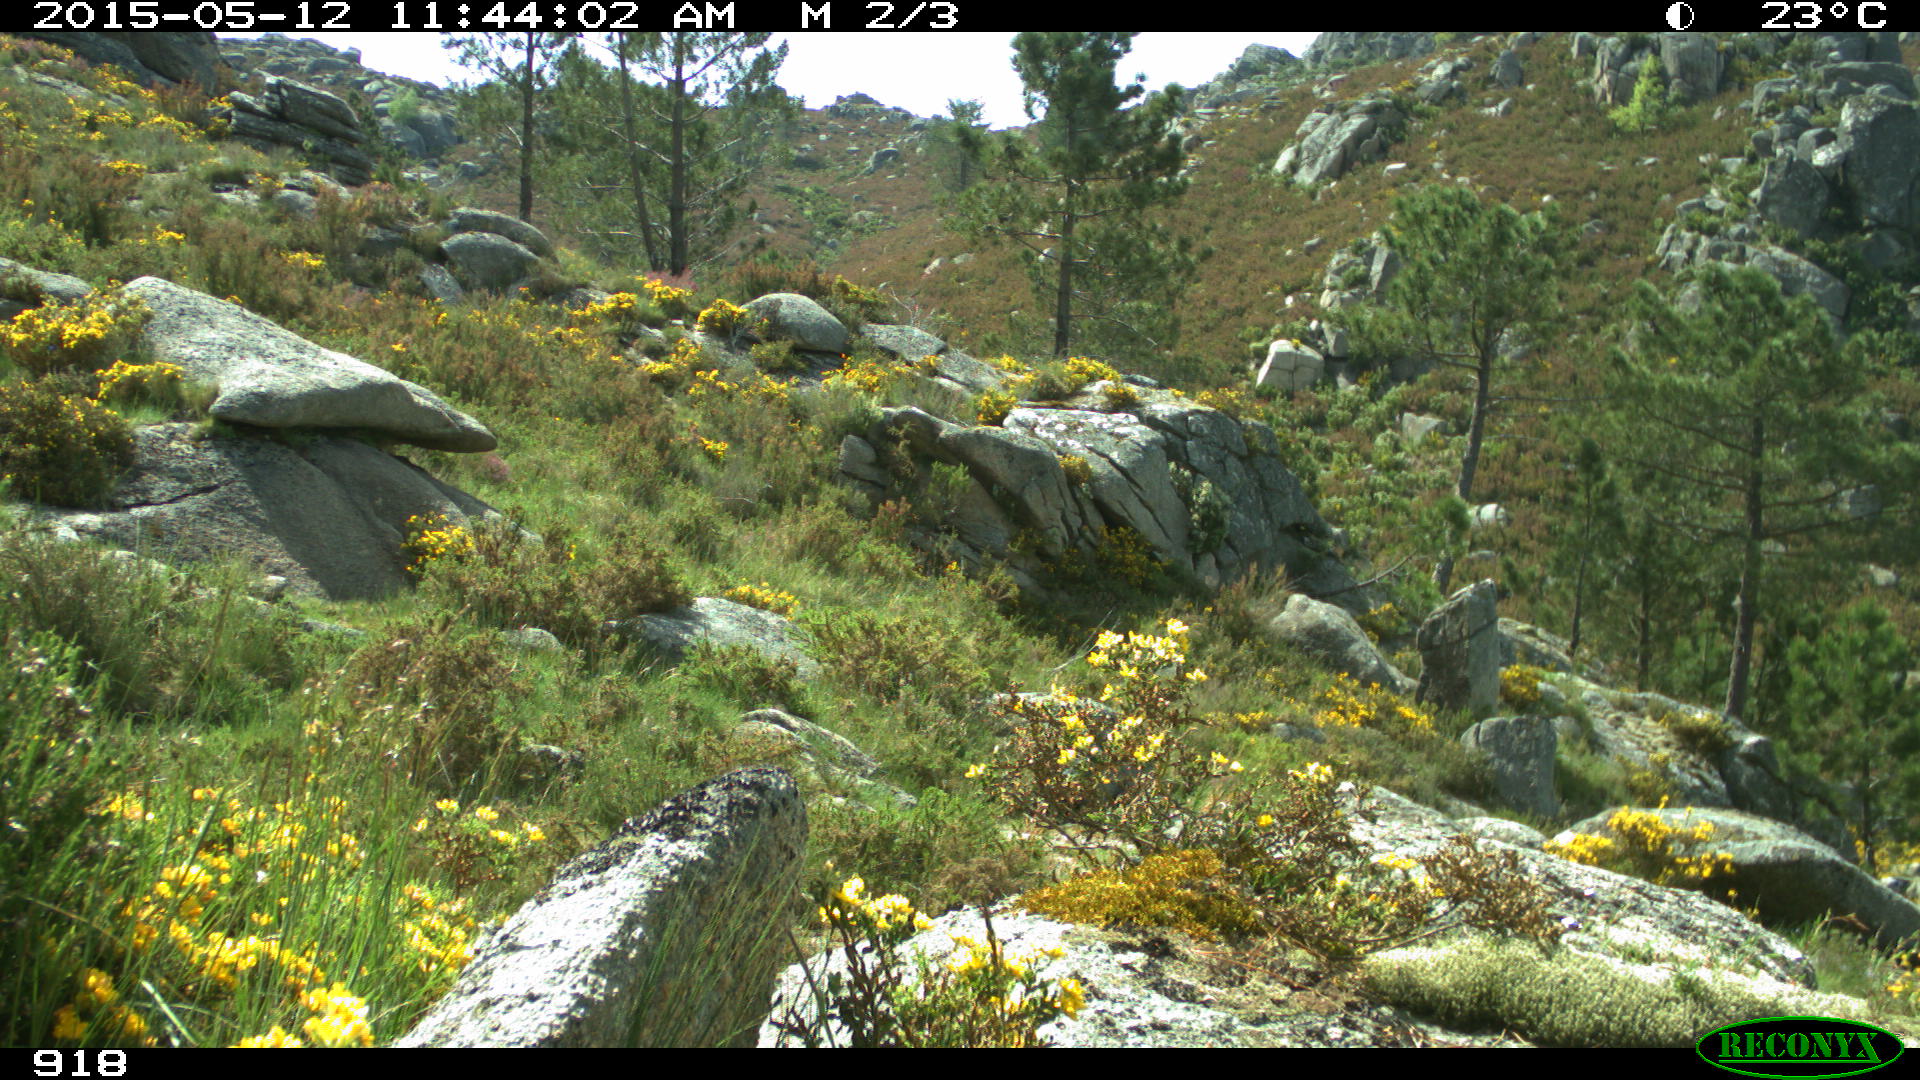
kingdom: Animalia
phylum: Chordata
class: Mammalia
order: Carnivora
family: Canidae
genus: Canis
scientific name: Canis lupus
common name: Gray wolf
